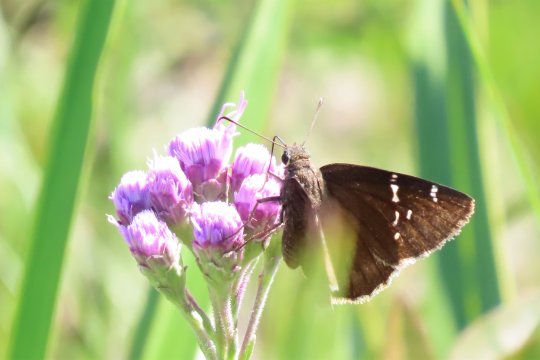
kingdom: Animalia
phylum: Arthropoda
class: Insecta
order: Lepidoptera
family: Hesperiidae
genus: Thorybes
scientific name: Thorybes mexicana
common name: Confused Cloudywing
